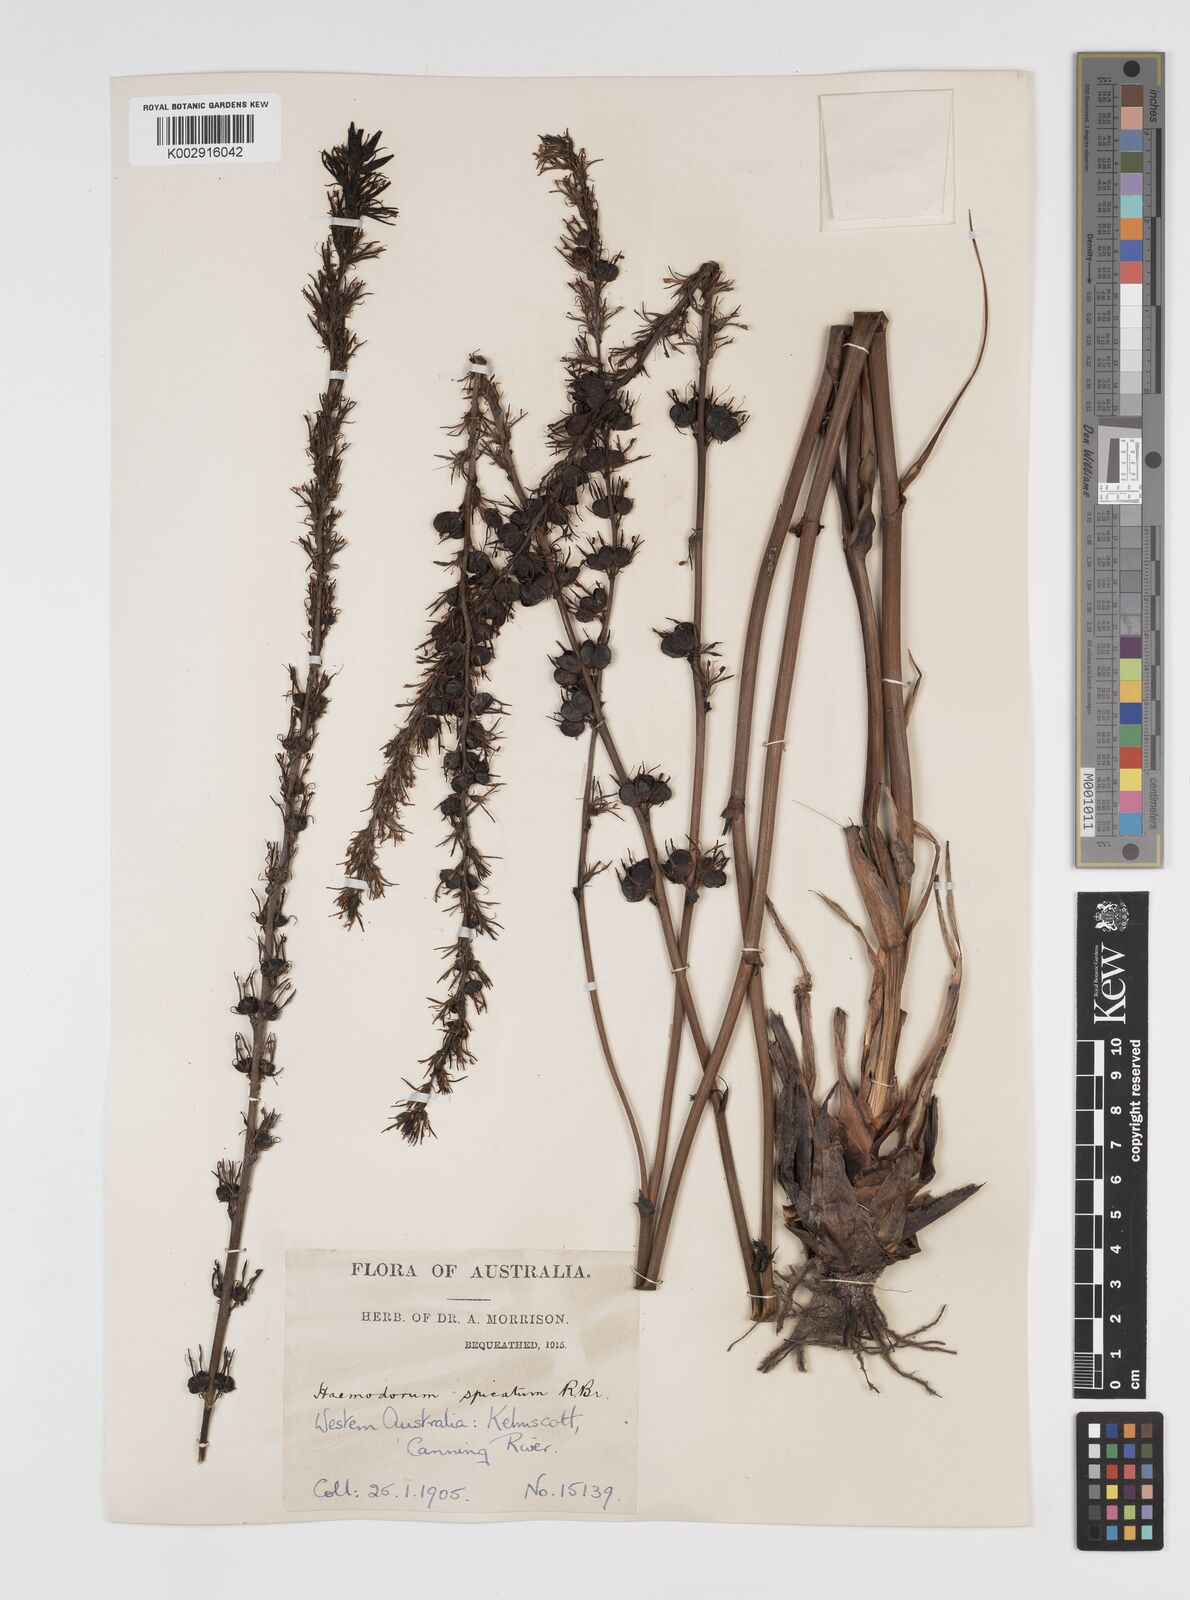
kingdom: Plantae
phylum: Tracheophyta
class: Liliopsida
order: Commelinales
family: Haemodoraceae
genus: Haemodorum
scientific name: Haemodorum spicatum
